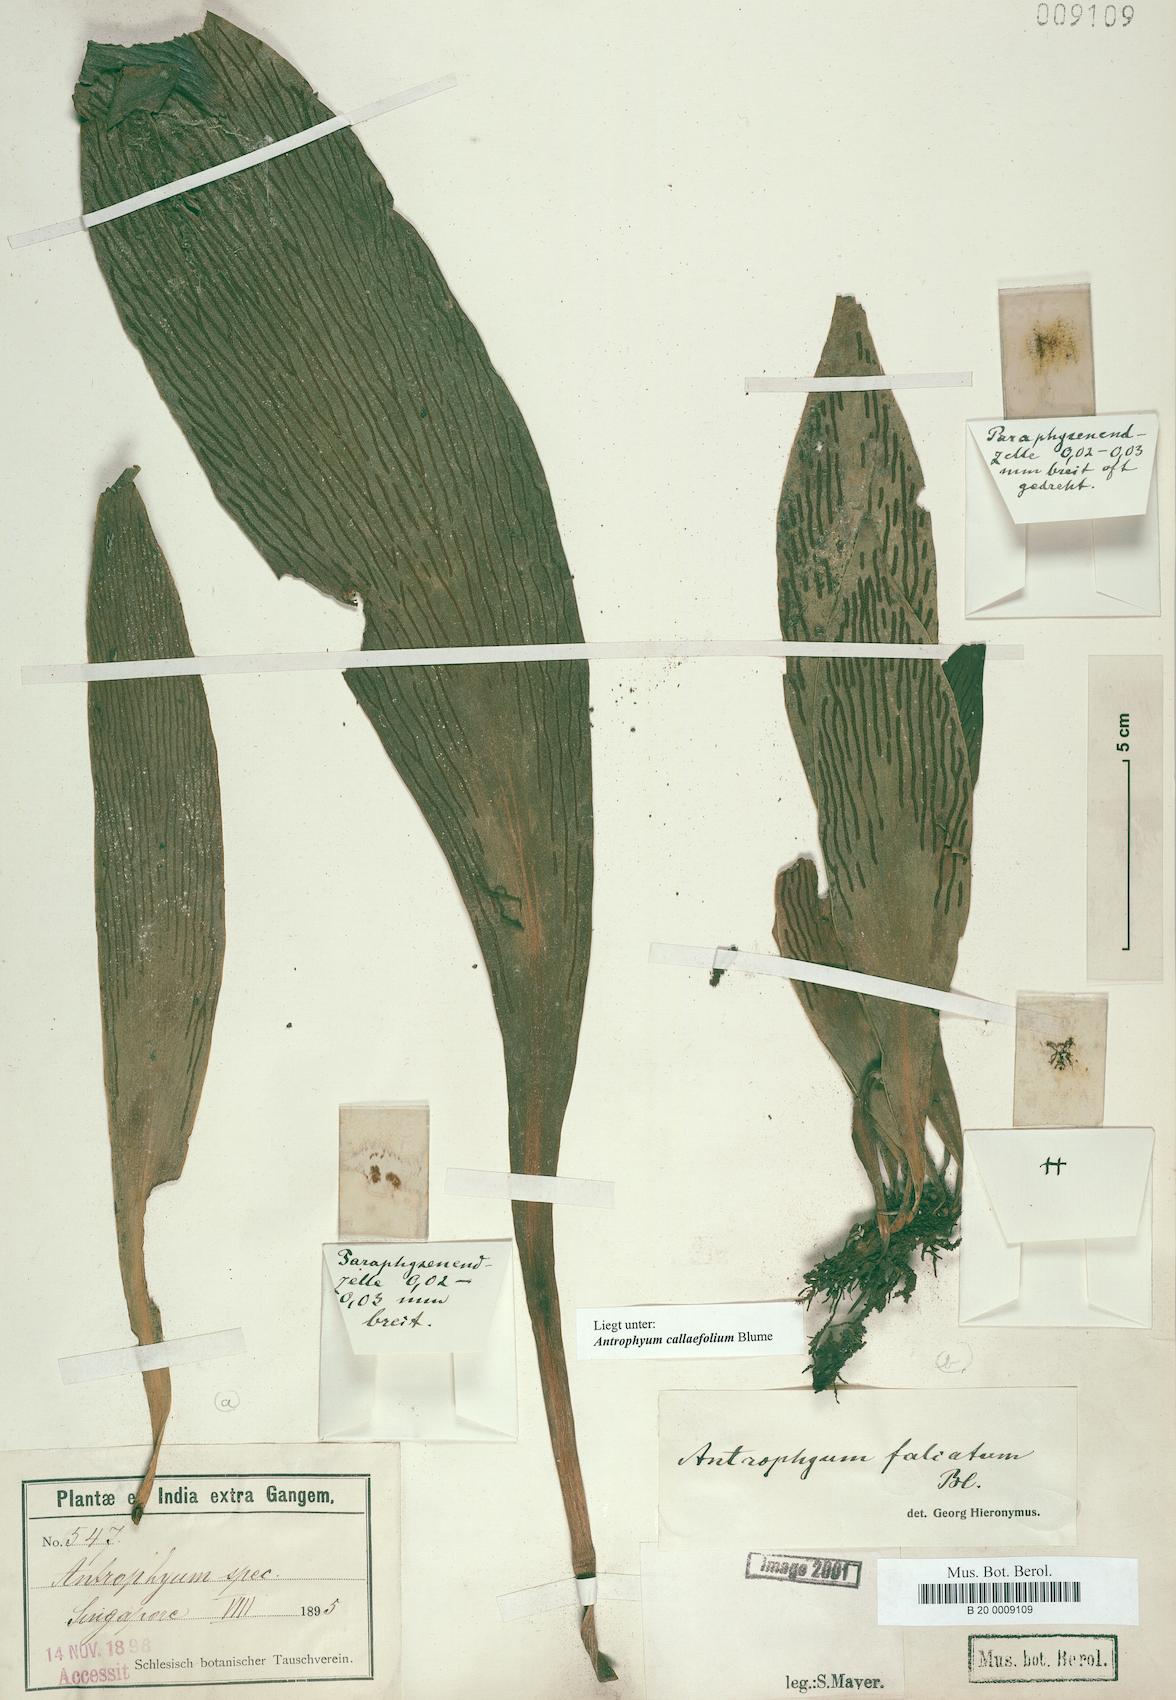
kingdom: Plantae
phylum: Tracheophyta
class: Polypodiopsida
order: Polypodiales
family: Pteridaceae
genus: Antrophyum
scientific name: Antrophyum callifolium
